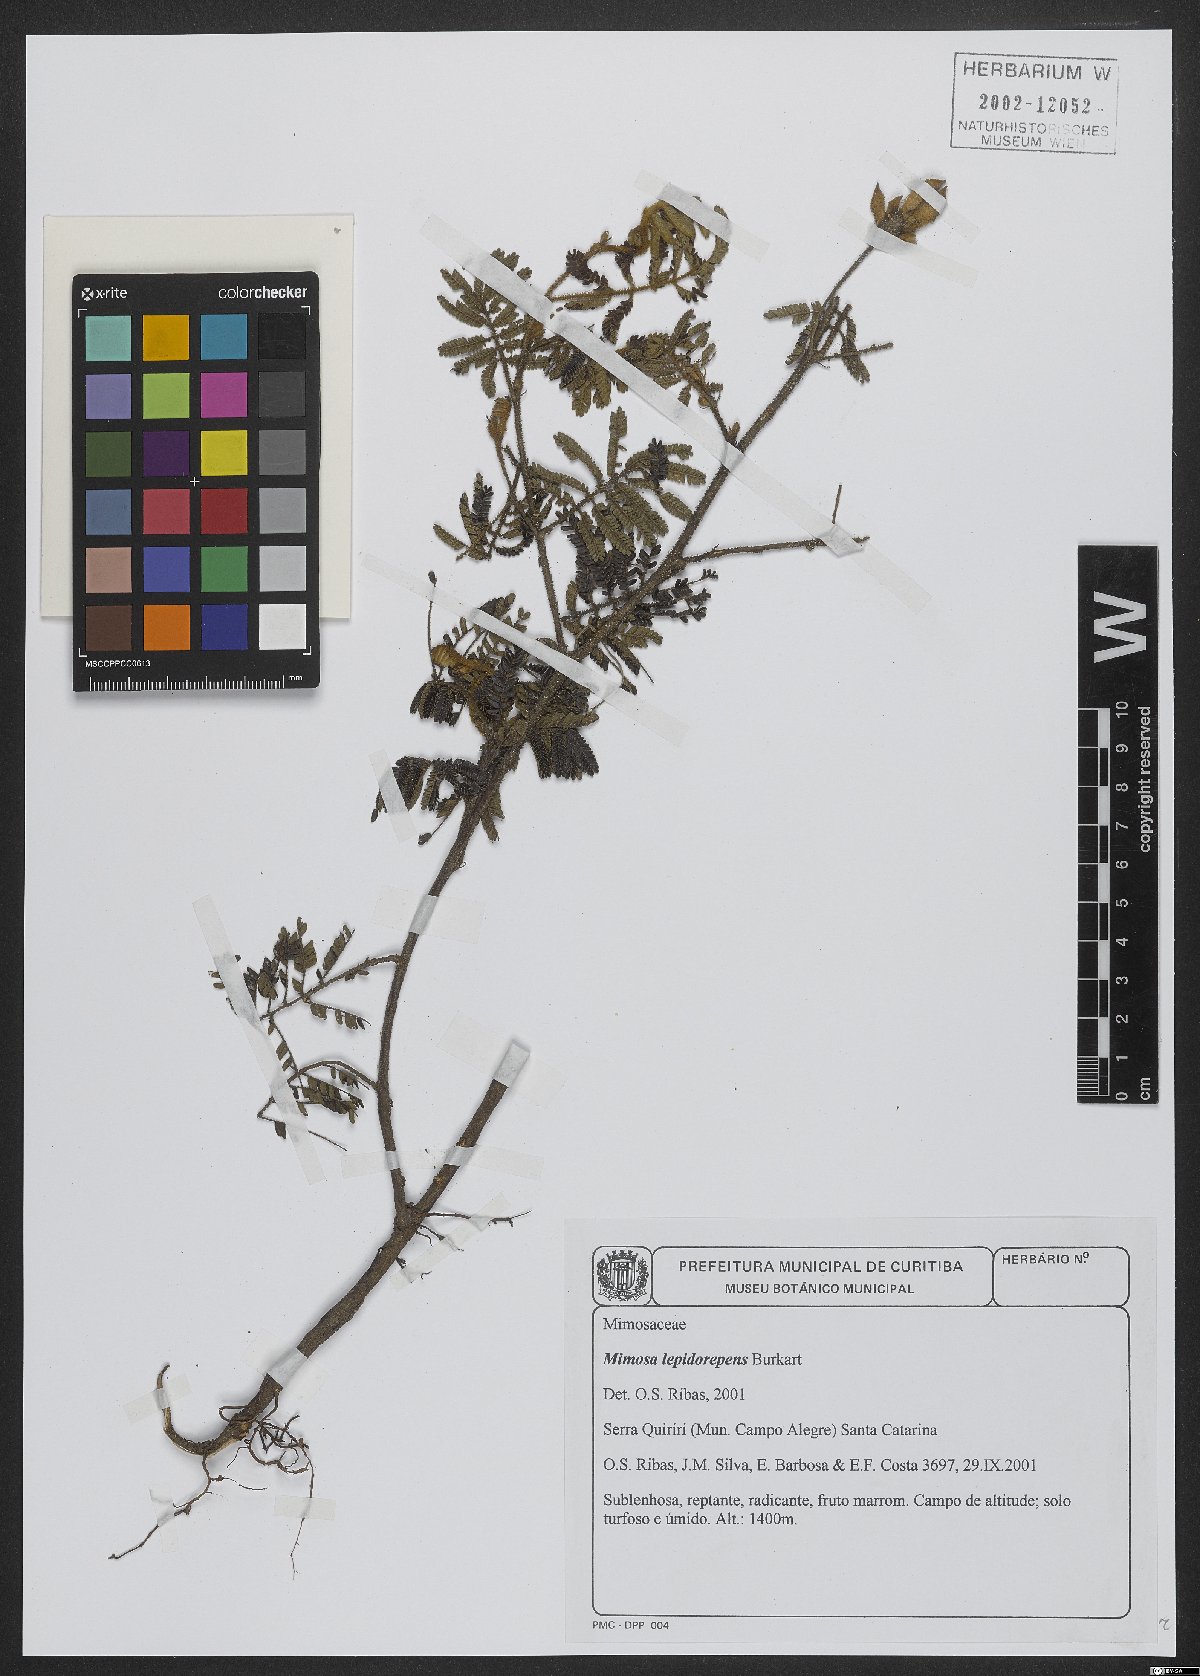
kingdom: Plantae
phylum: Tracheophyta
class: Magnoliopsida
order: Fabales
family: Fabaceae
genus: Mimosa
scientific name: Mimosa lepidorepens
